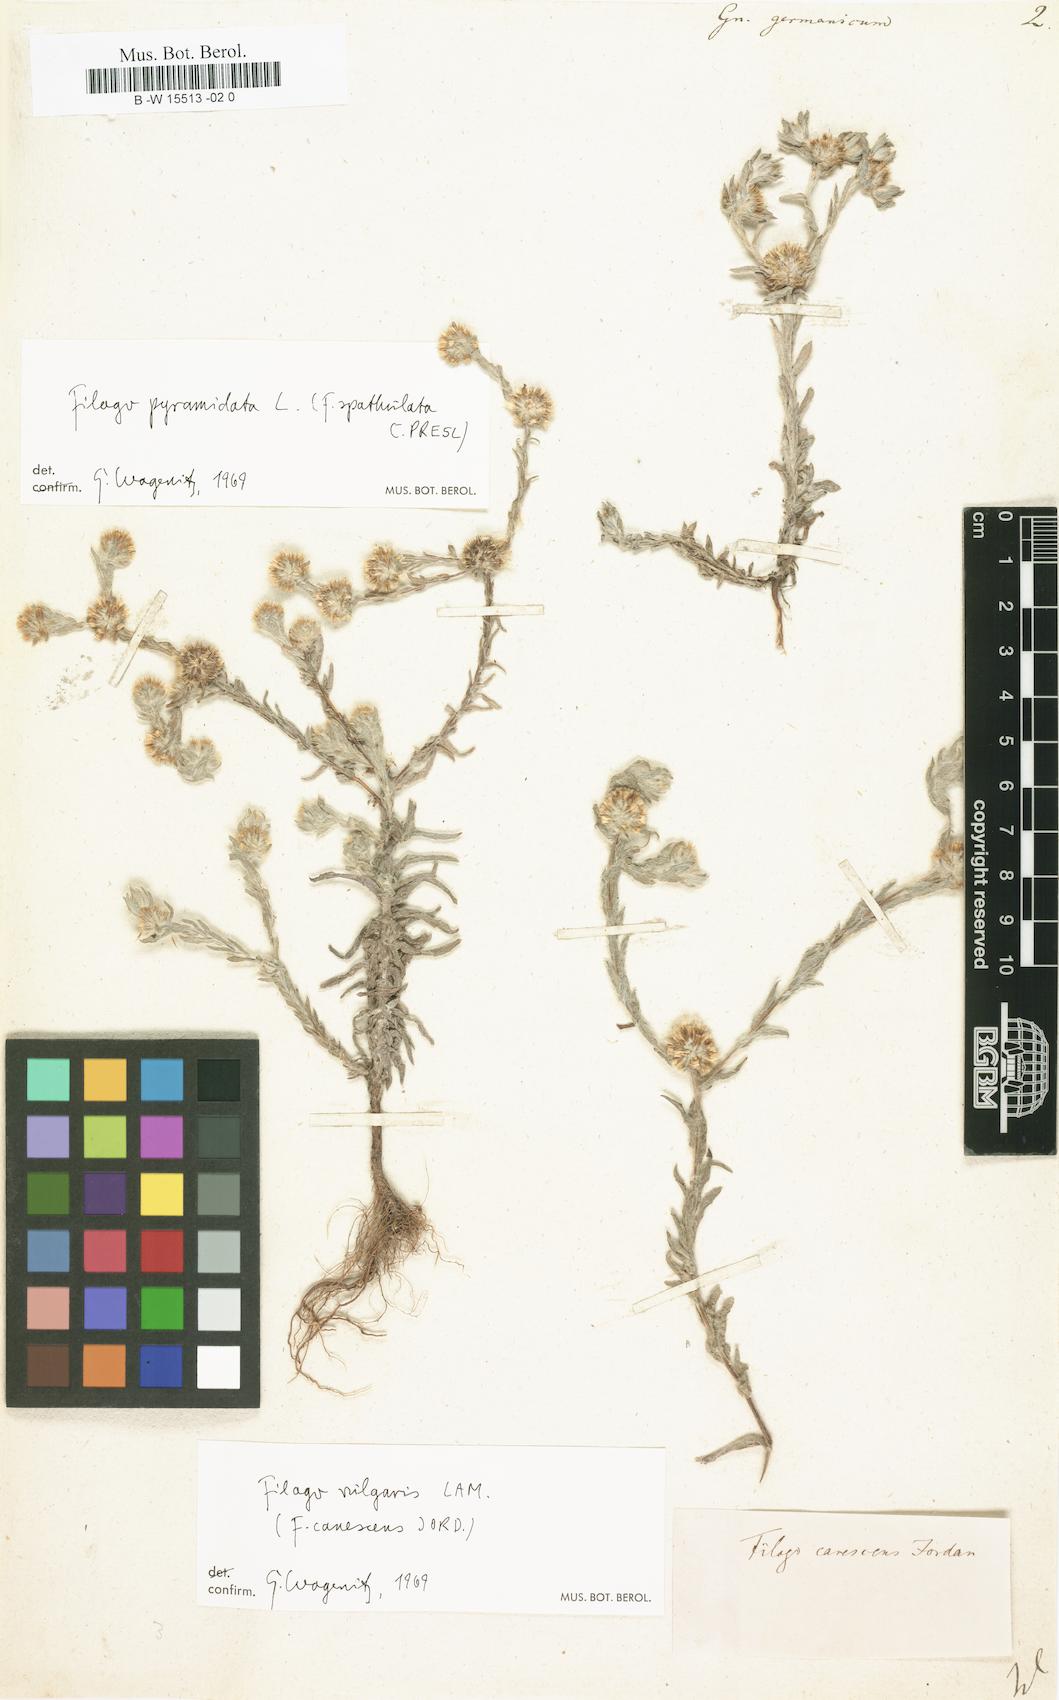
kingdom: Plantae
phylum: Tracheophyta
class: Magnoliopsida
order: Asterales
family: Asteraceae
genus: Filago
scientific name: Filago germanica
